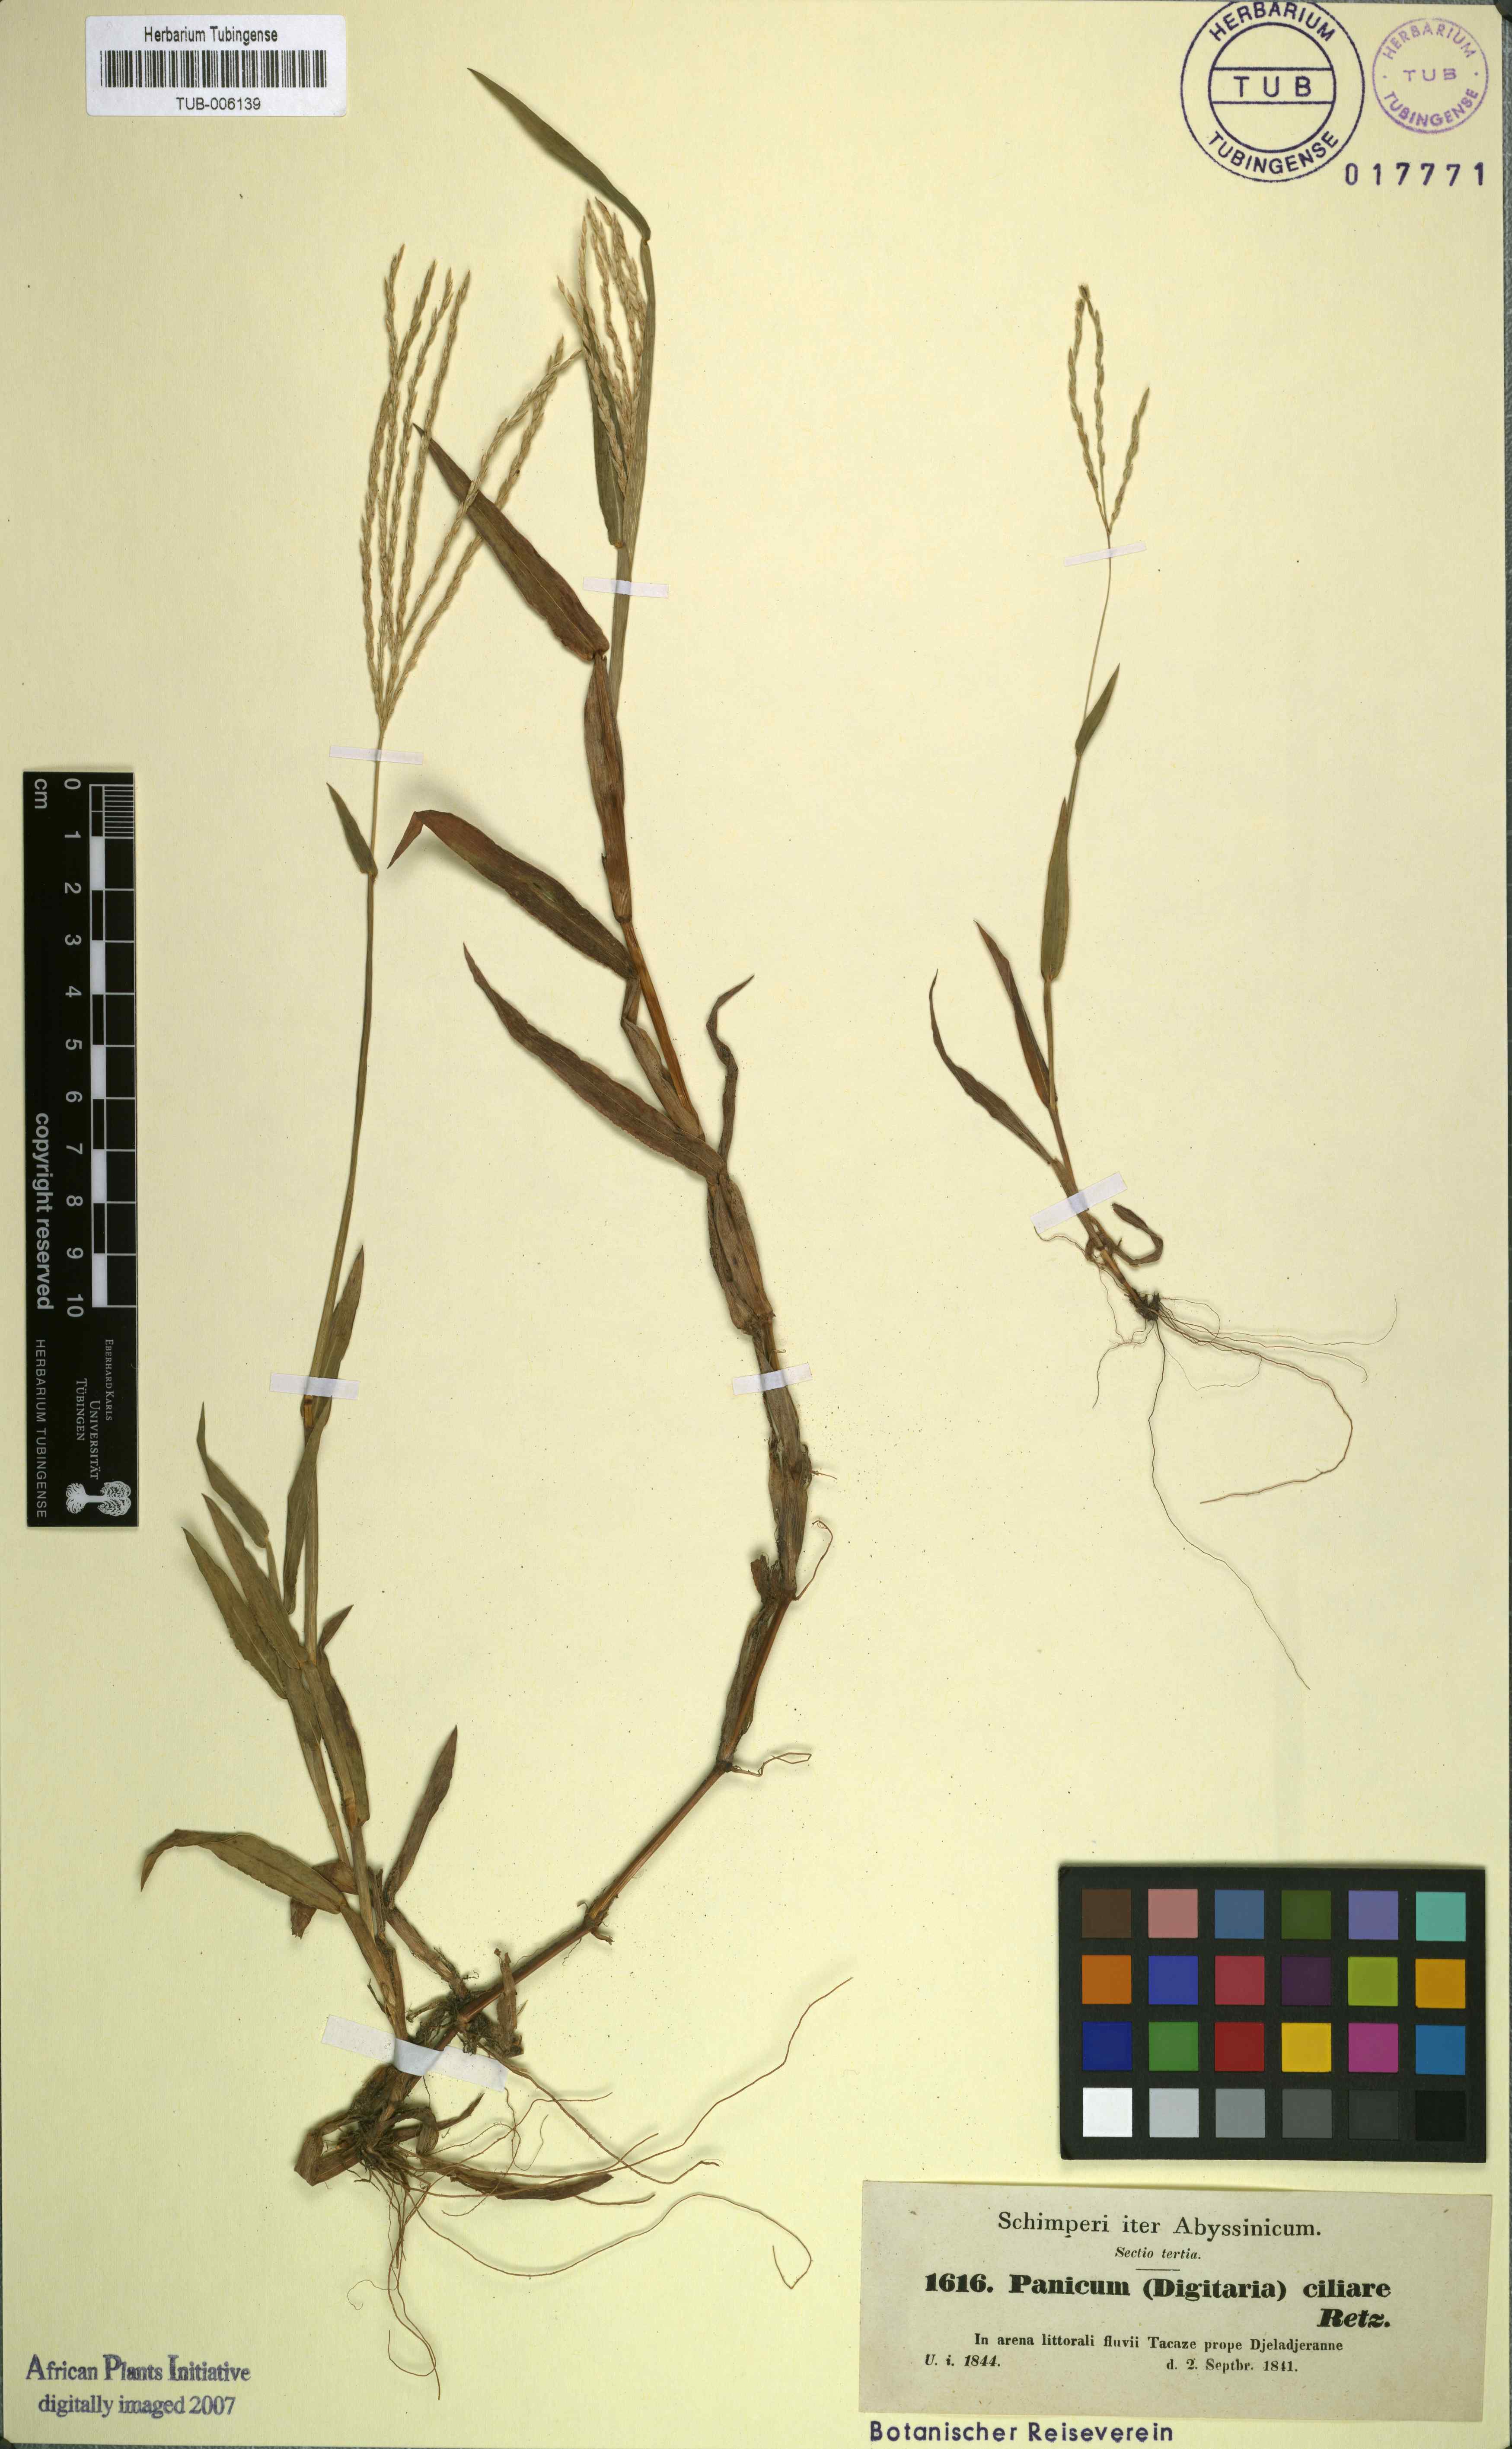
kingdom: Plantae
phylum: Tracheophyta
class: Liliopsida
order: Poales
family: Poaceae
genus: Digitaria
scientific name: Digitaria ciliaris
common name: Tropical finger-grass
